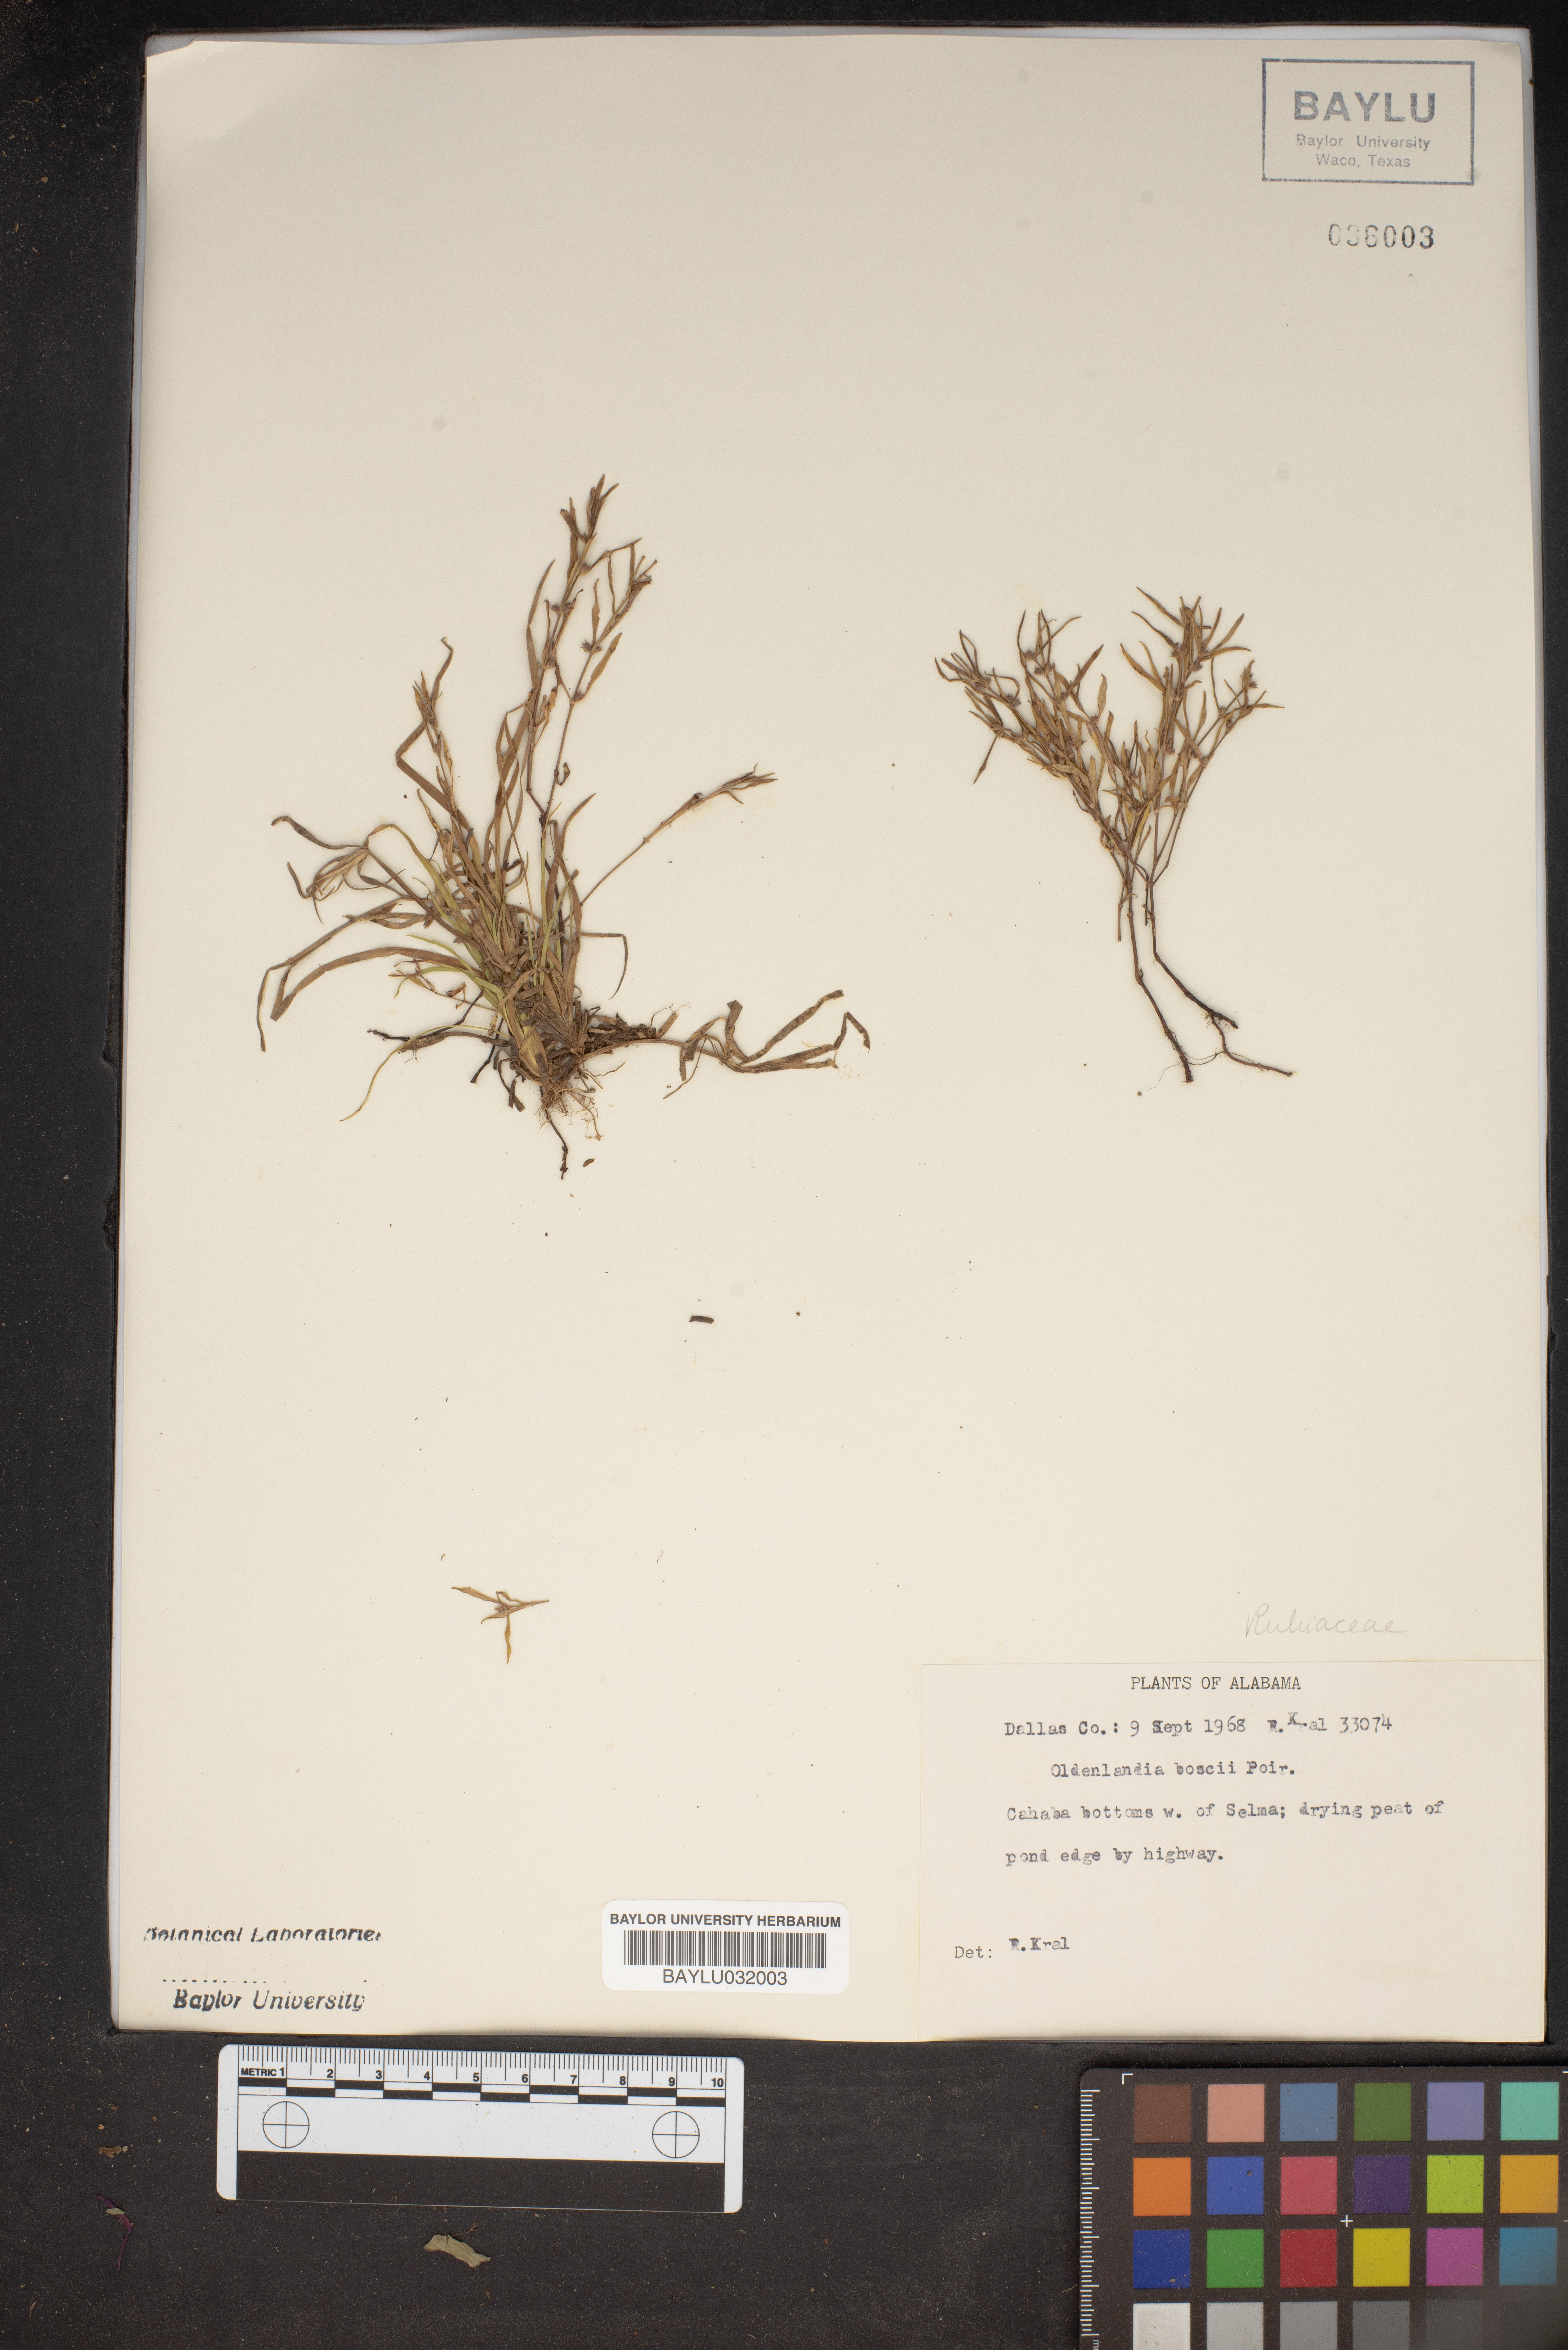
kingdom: Plantae
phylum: Tracheophyta
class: Magnoliopsida
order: Gentianales
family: Rubiaceae
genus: Oldenlandia
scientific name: Oldenlandia boscii
